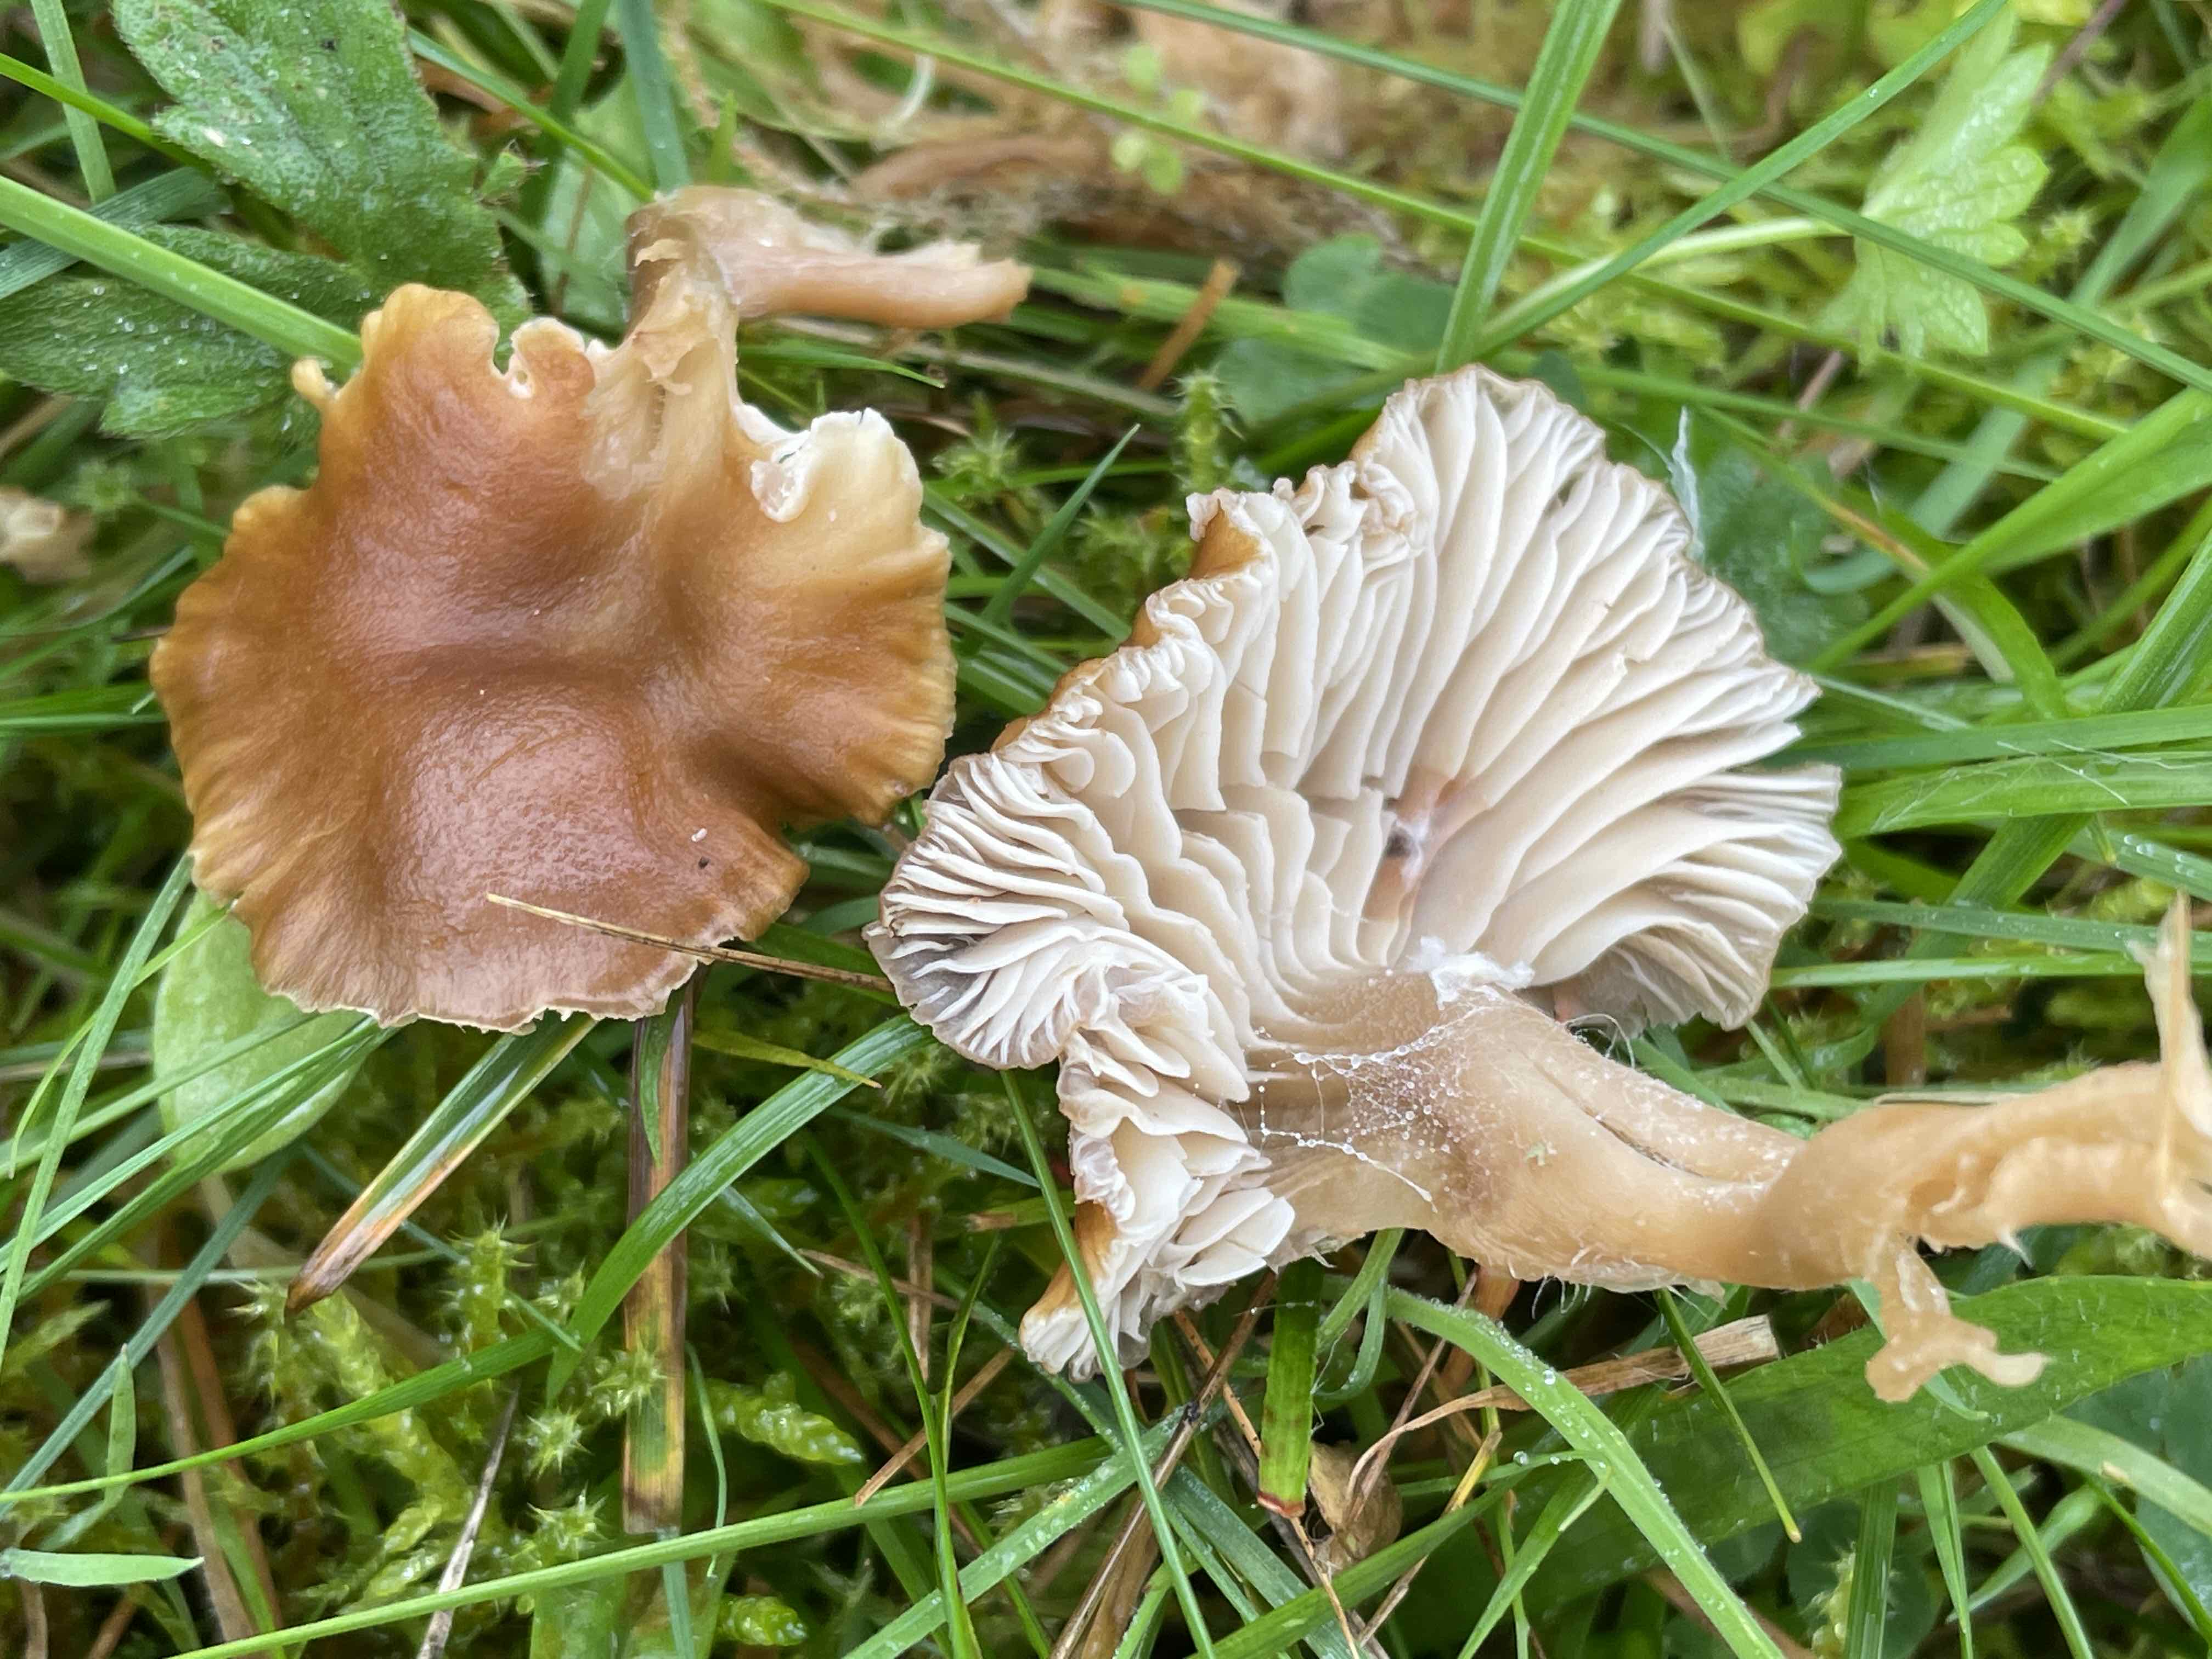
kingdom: Fungi
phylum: Basidiomycota
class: Agaricomycetes
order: Agaricales
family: Clavariaceae
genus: Camarophyllopsis
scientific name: Camarophyllopsis schulzeri
